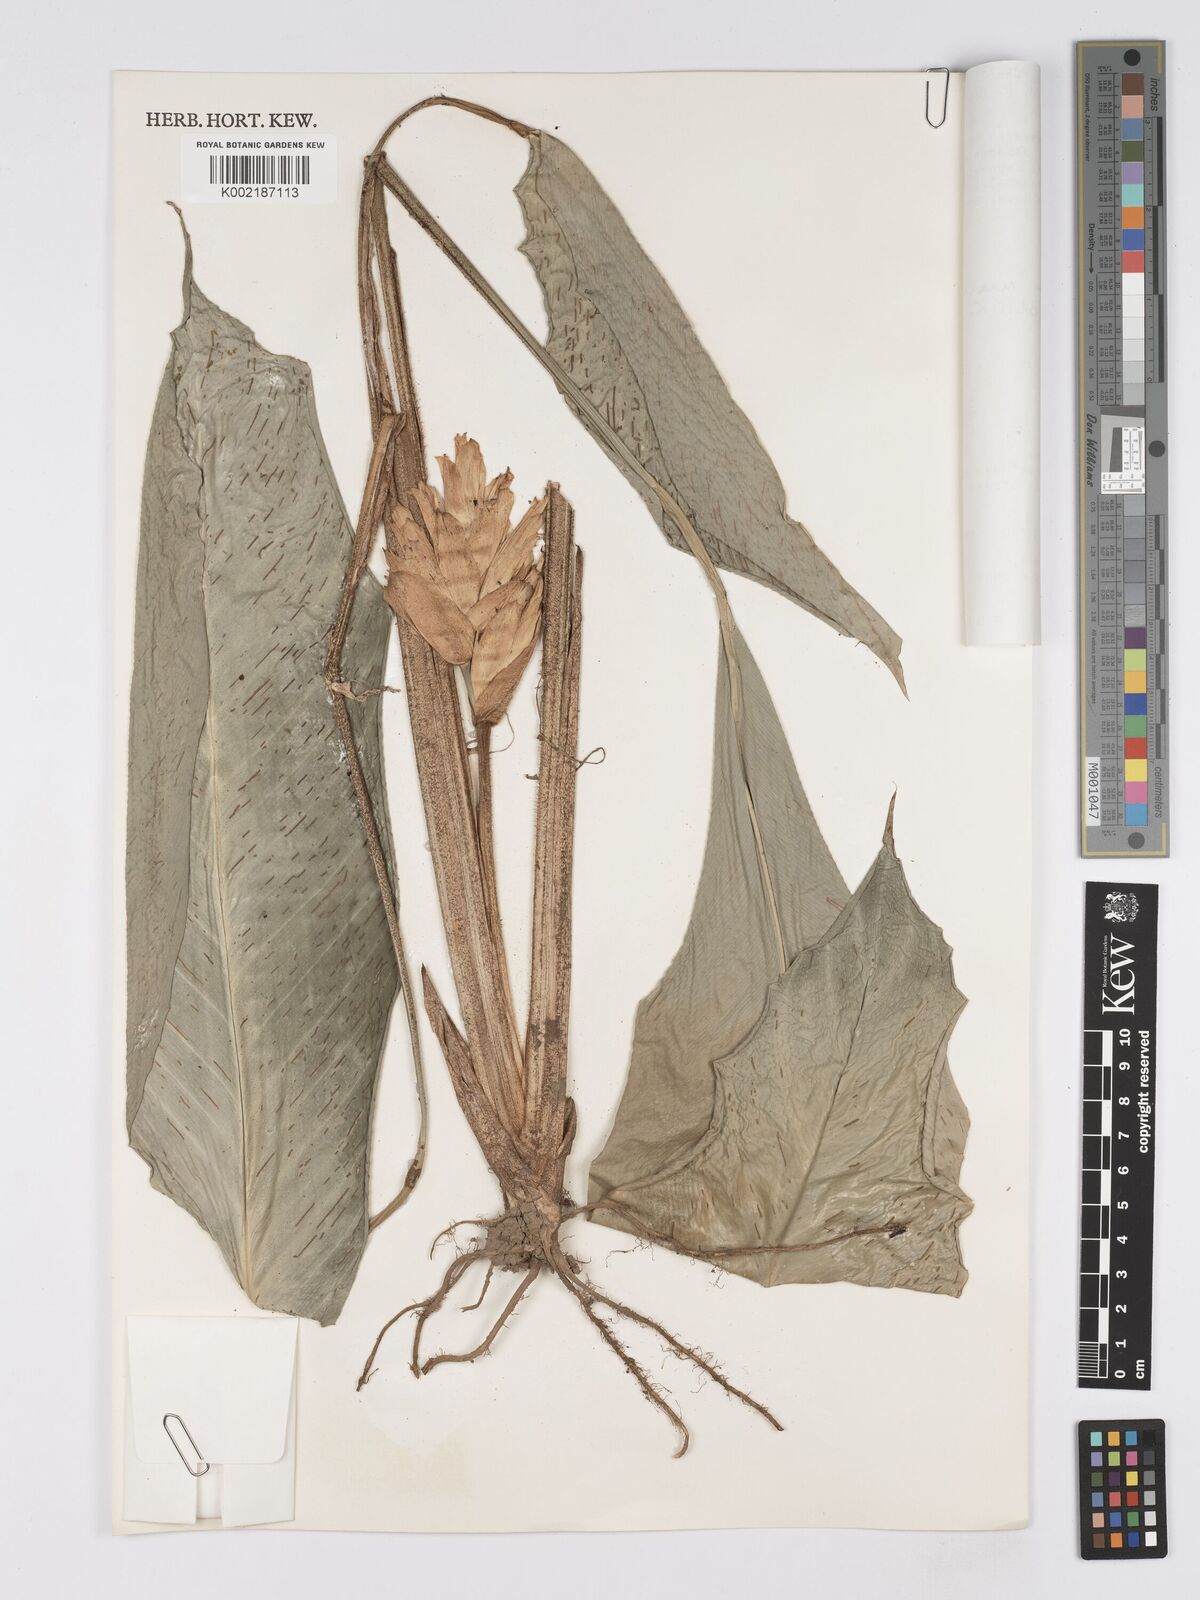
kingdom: Plantae
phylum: Tracheophyta
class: Liliopsida
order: Zingiberales
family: Marantaceae
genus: Phrynium
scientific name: Phrynium maximum
